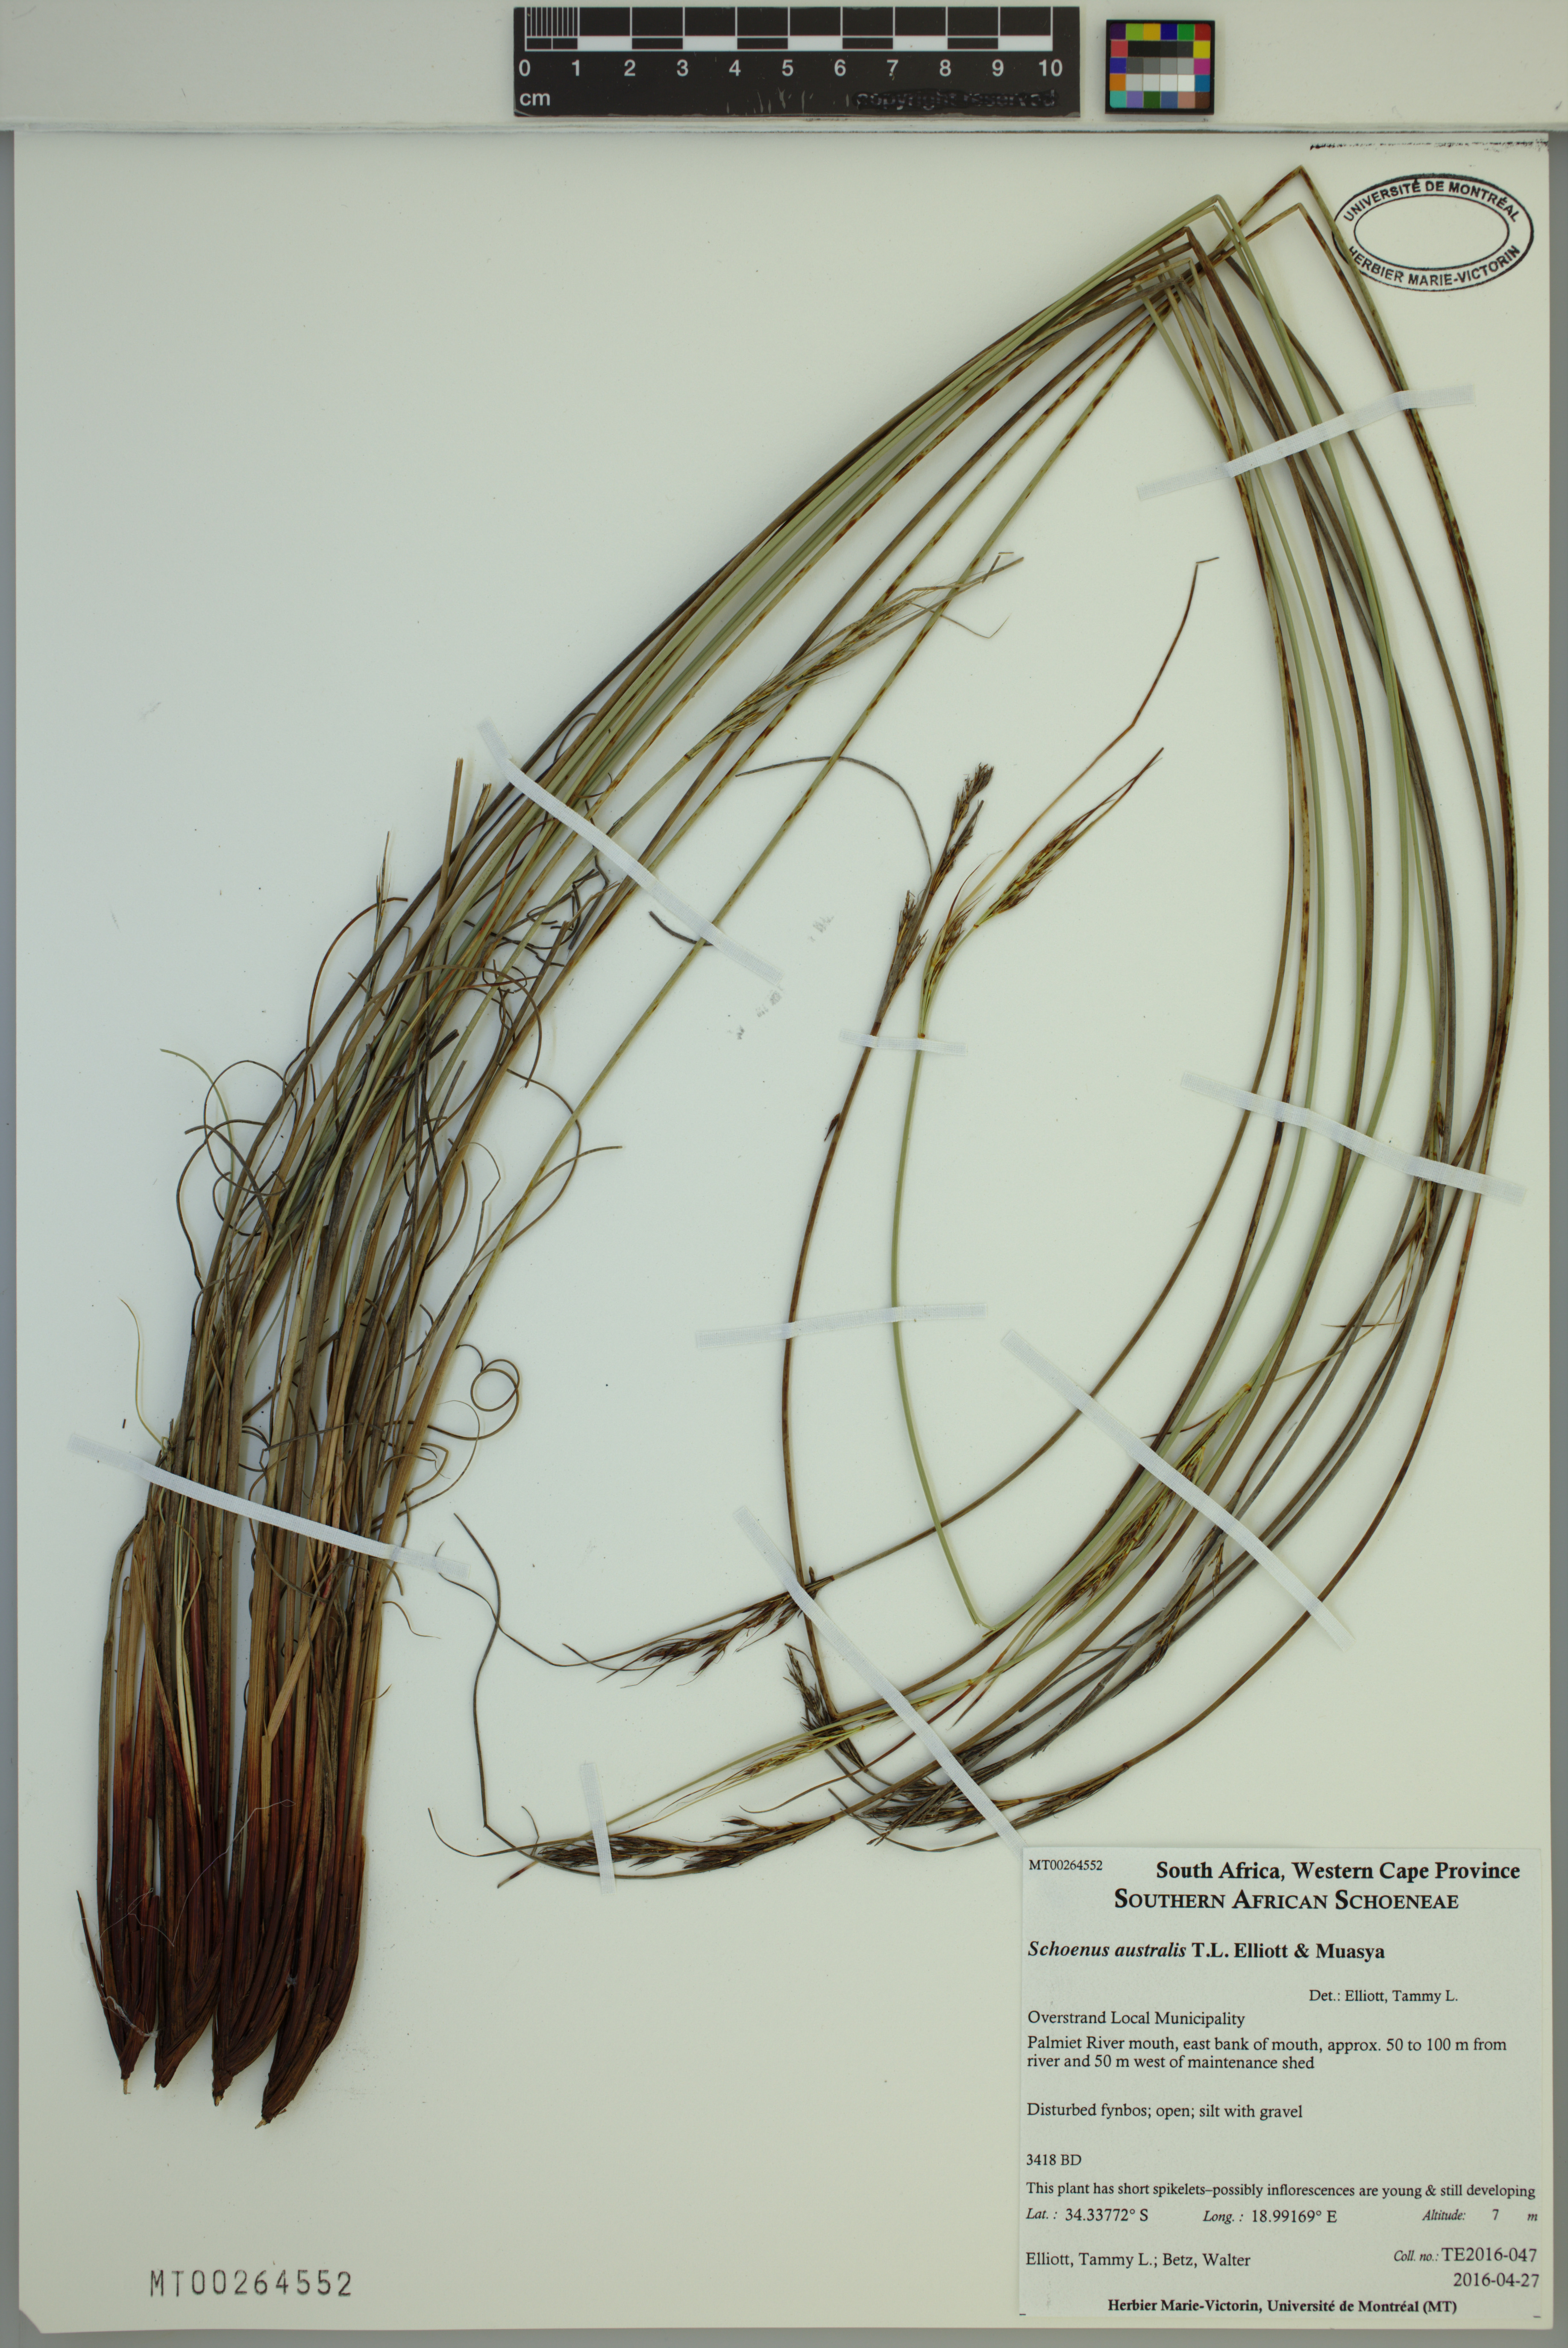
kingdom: Plantae
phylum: Tracheophyta
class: Liliopsida
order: Poales
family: Cyperaceae
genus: Schoenus
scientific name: Schoenus australis
